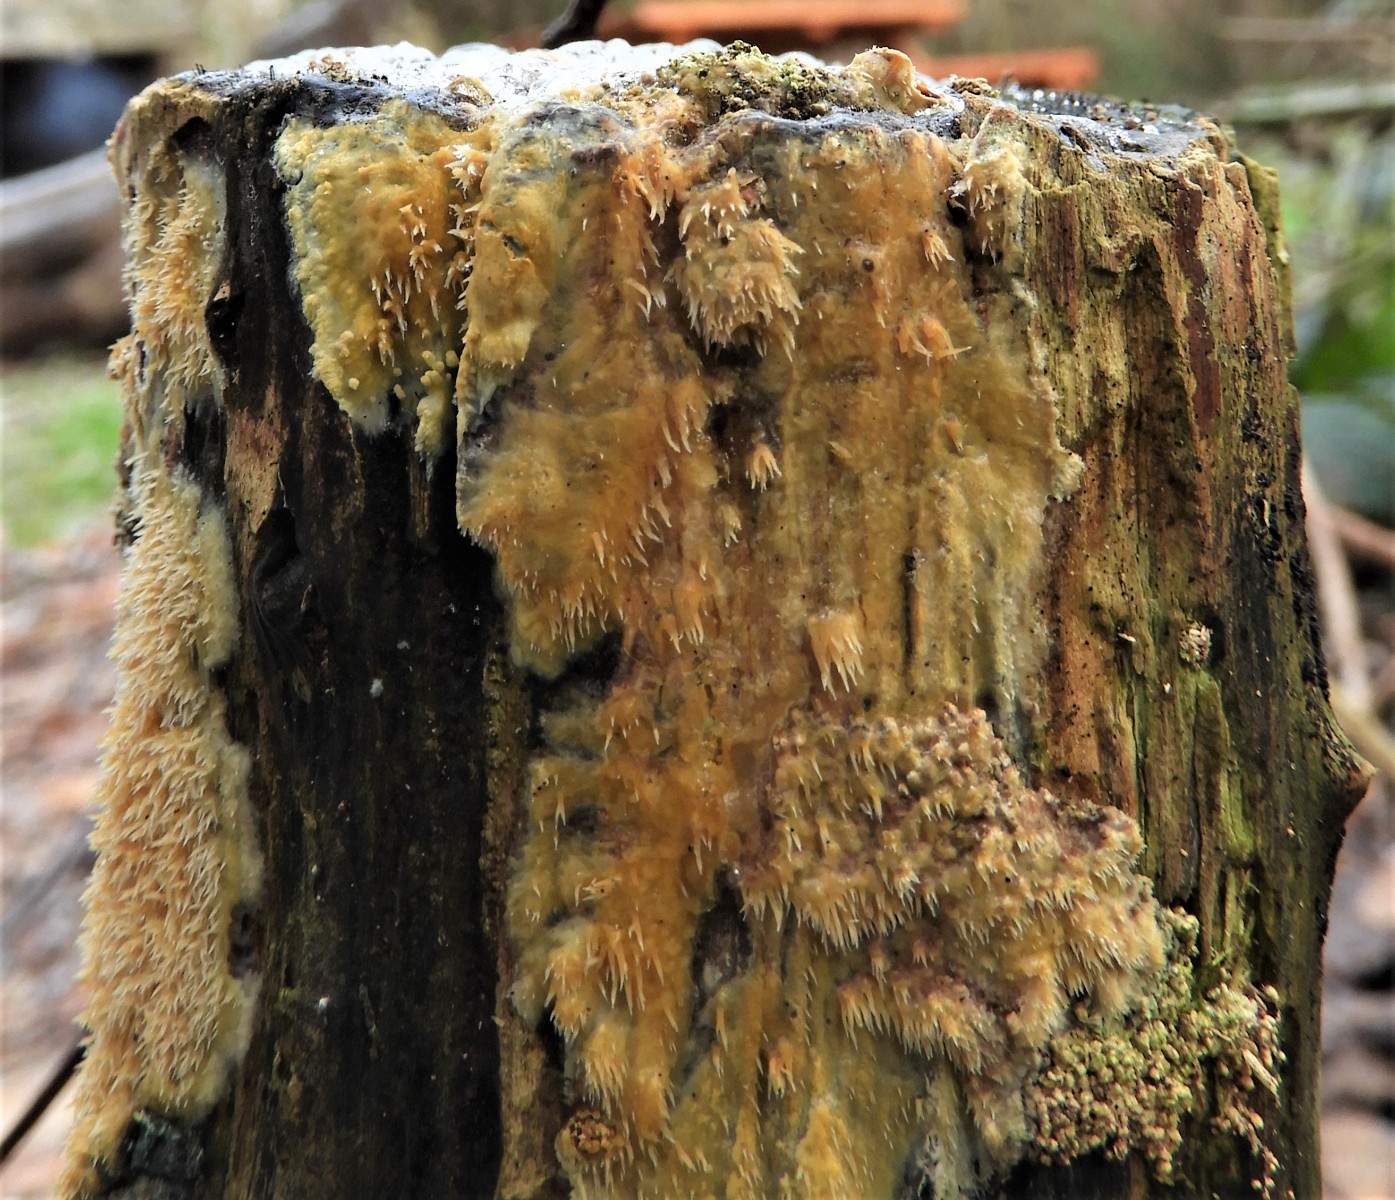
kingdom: Fungi
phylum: Basidiomycota
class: Agaricomycetes
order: Polyporales
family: Meruliaceae
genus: Mycoacia
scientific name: Mycoacia uda
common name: citrongul vokspig
